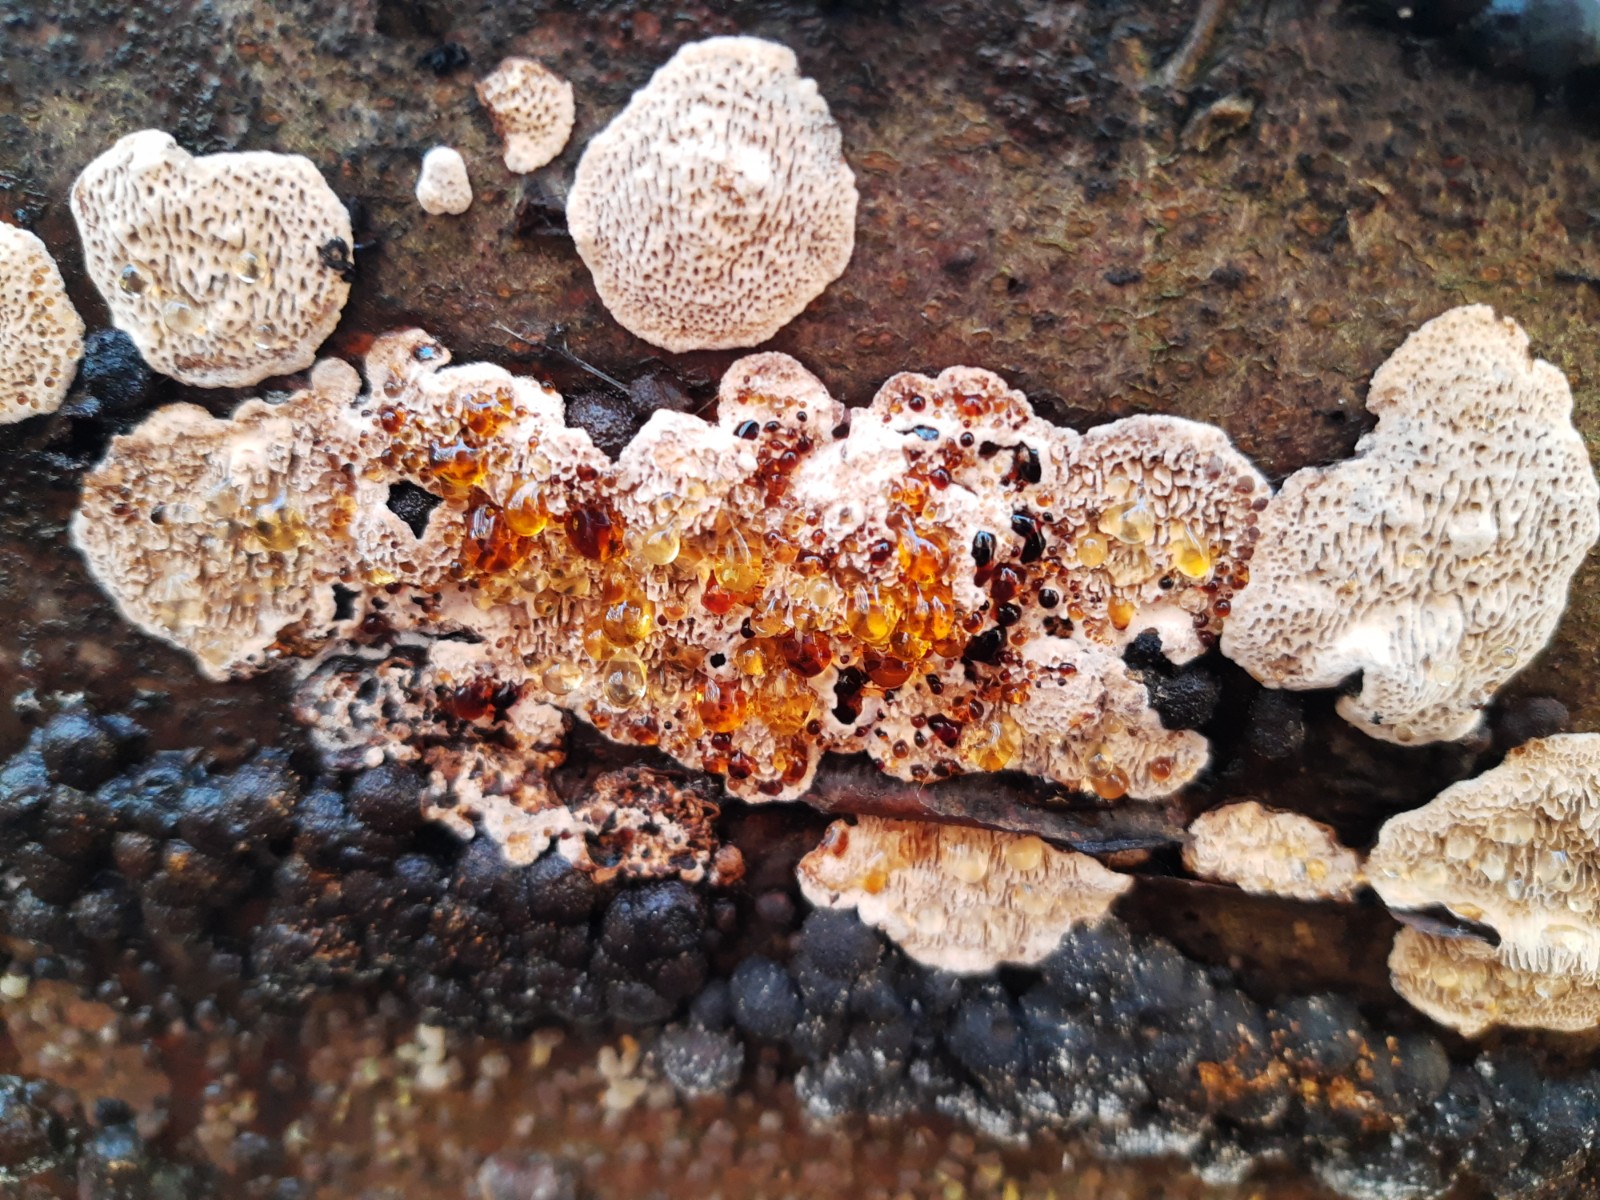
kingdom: Fungi
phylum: Basidiomycota
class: Agaricomycetes
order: Polyporales
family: Polyporaceae
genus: Podofomes
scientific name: Podofomes mollis
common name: blød begporesvamp
